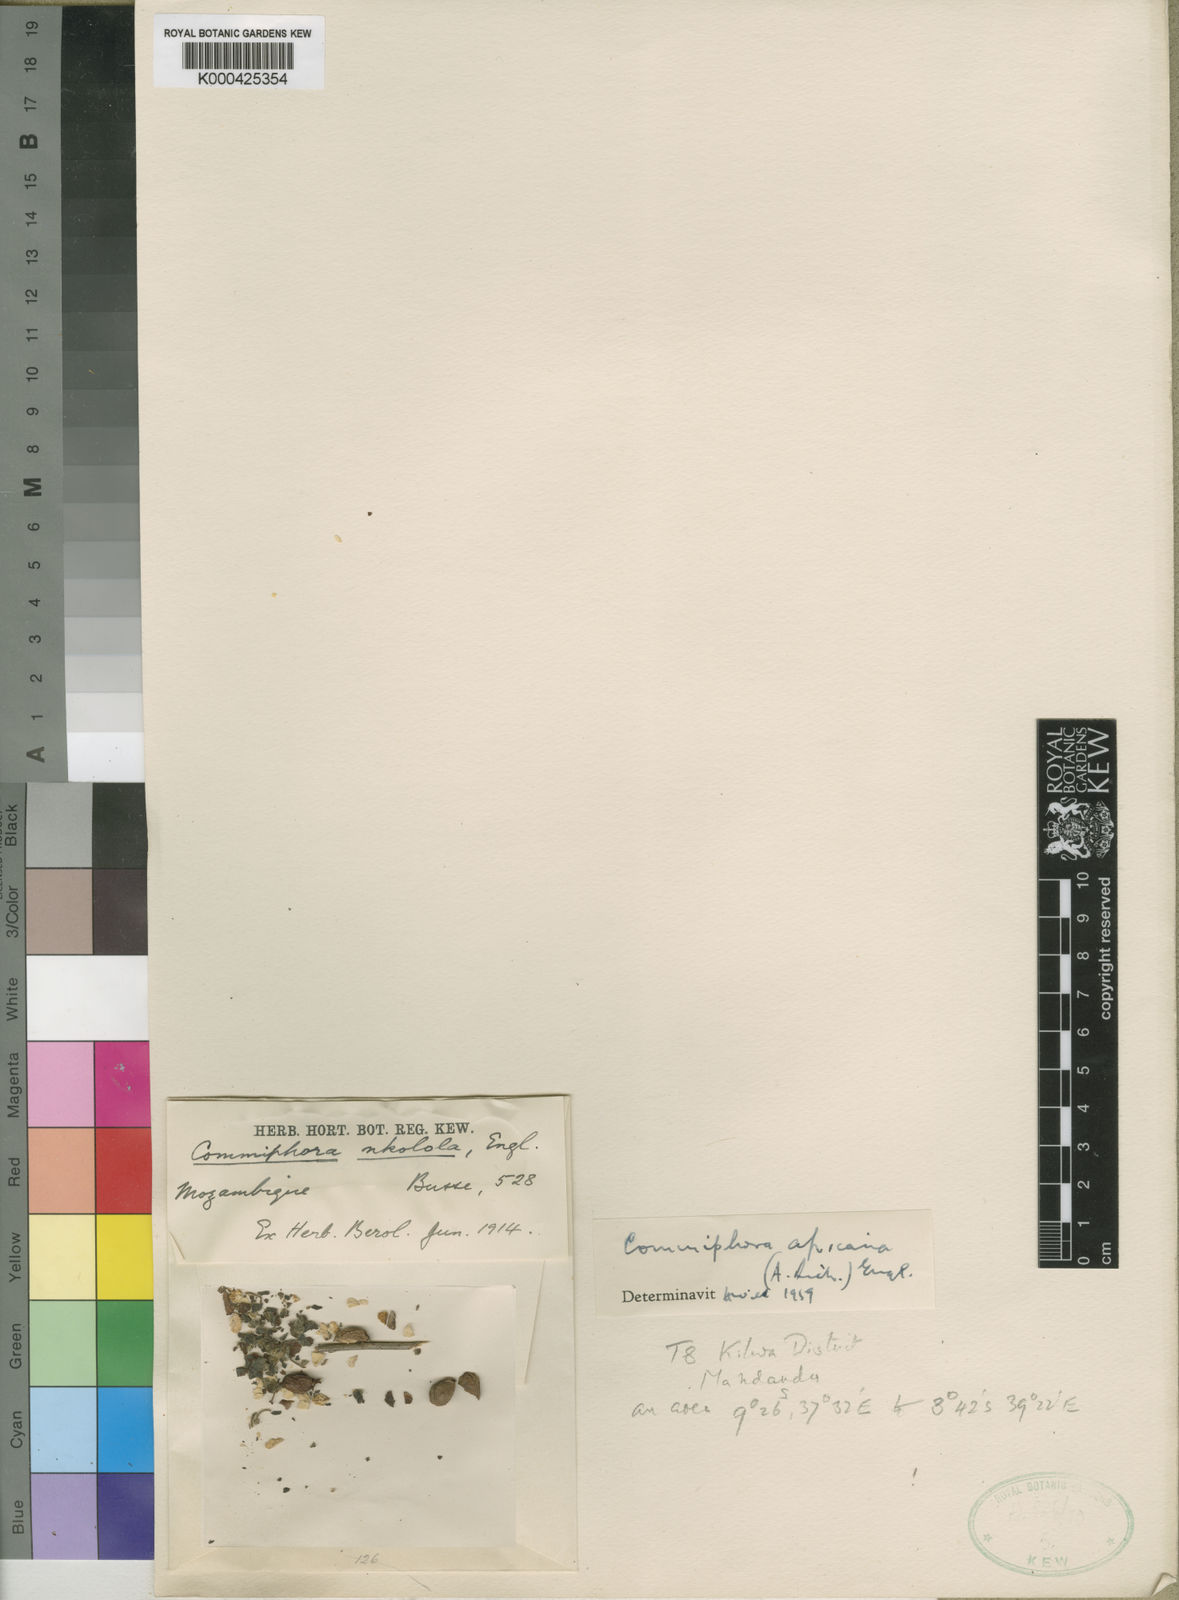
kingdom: Plantae
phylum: Tracheophyta
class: Magnoliopsida
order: Sapindales
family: Burseraceae
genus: Commiphora
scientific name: Commiphora africana
